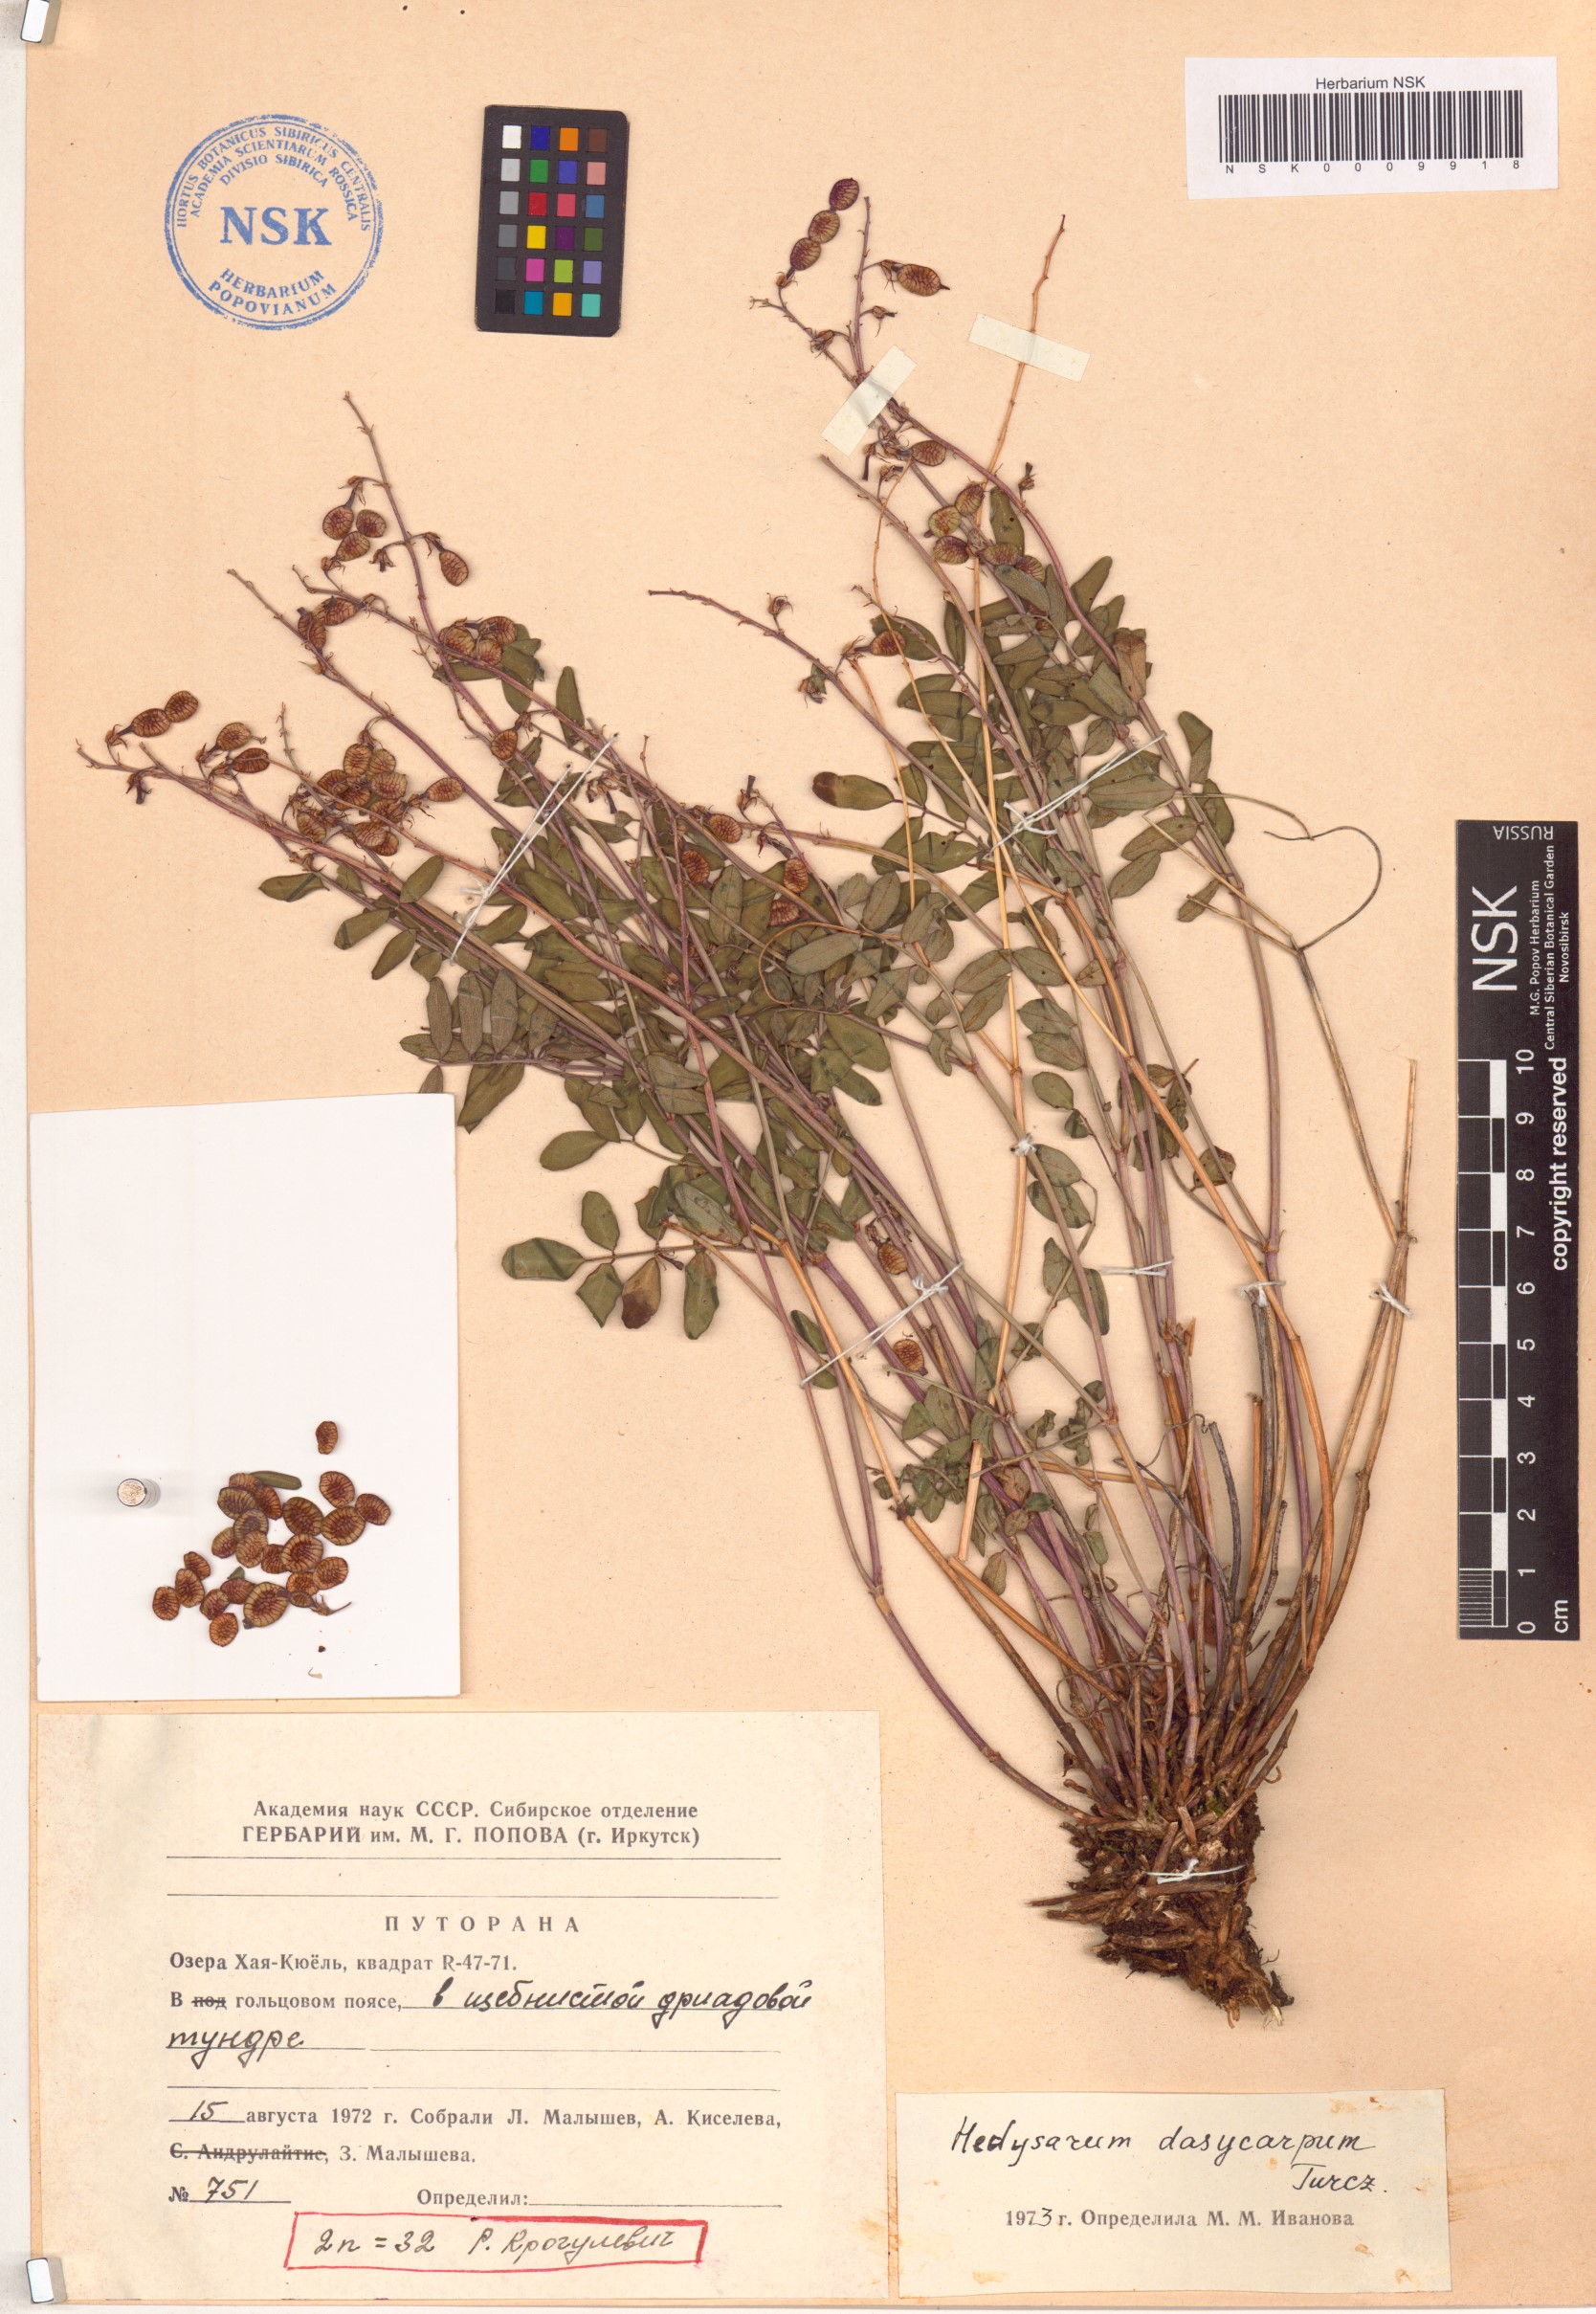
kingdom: Plantae
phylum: Tracheophyta
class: Magnoliopsida
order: Fabales
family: Fabaceae
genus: Hedysarum
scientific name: Hedysarum dasycarpum
